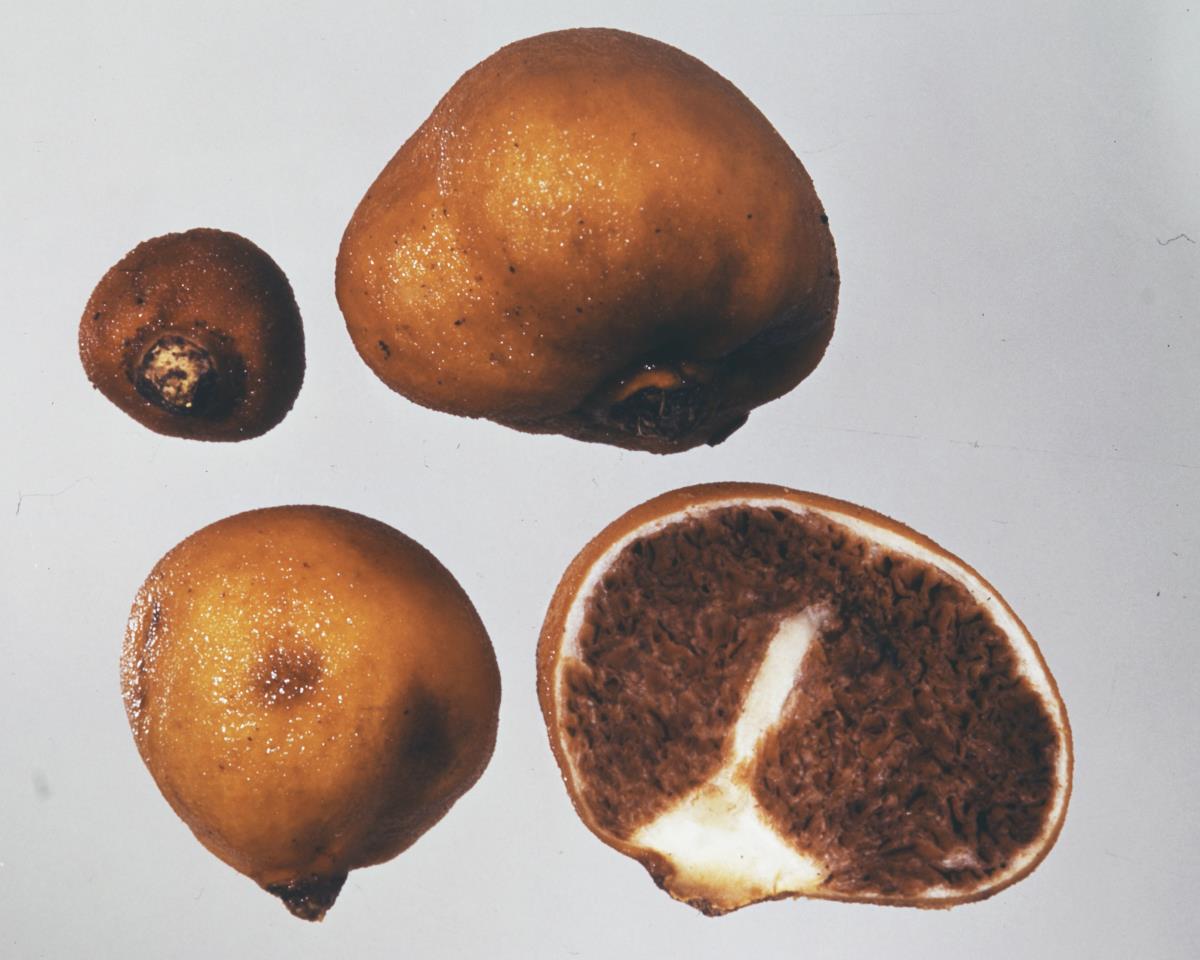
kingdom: Fungi
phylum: Basidiomycota
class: Agaricomycetes
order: Agaricales
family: Cortinariaceae
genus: Cortinarius
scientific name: Cortinarius peraurantiacus
